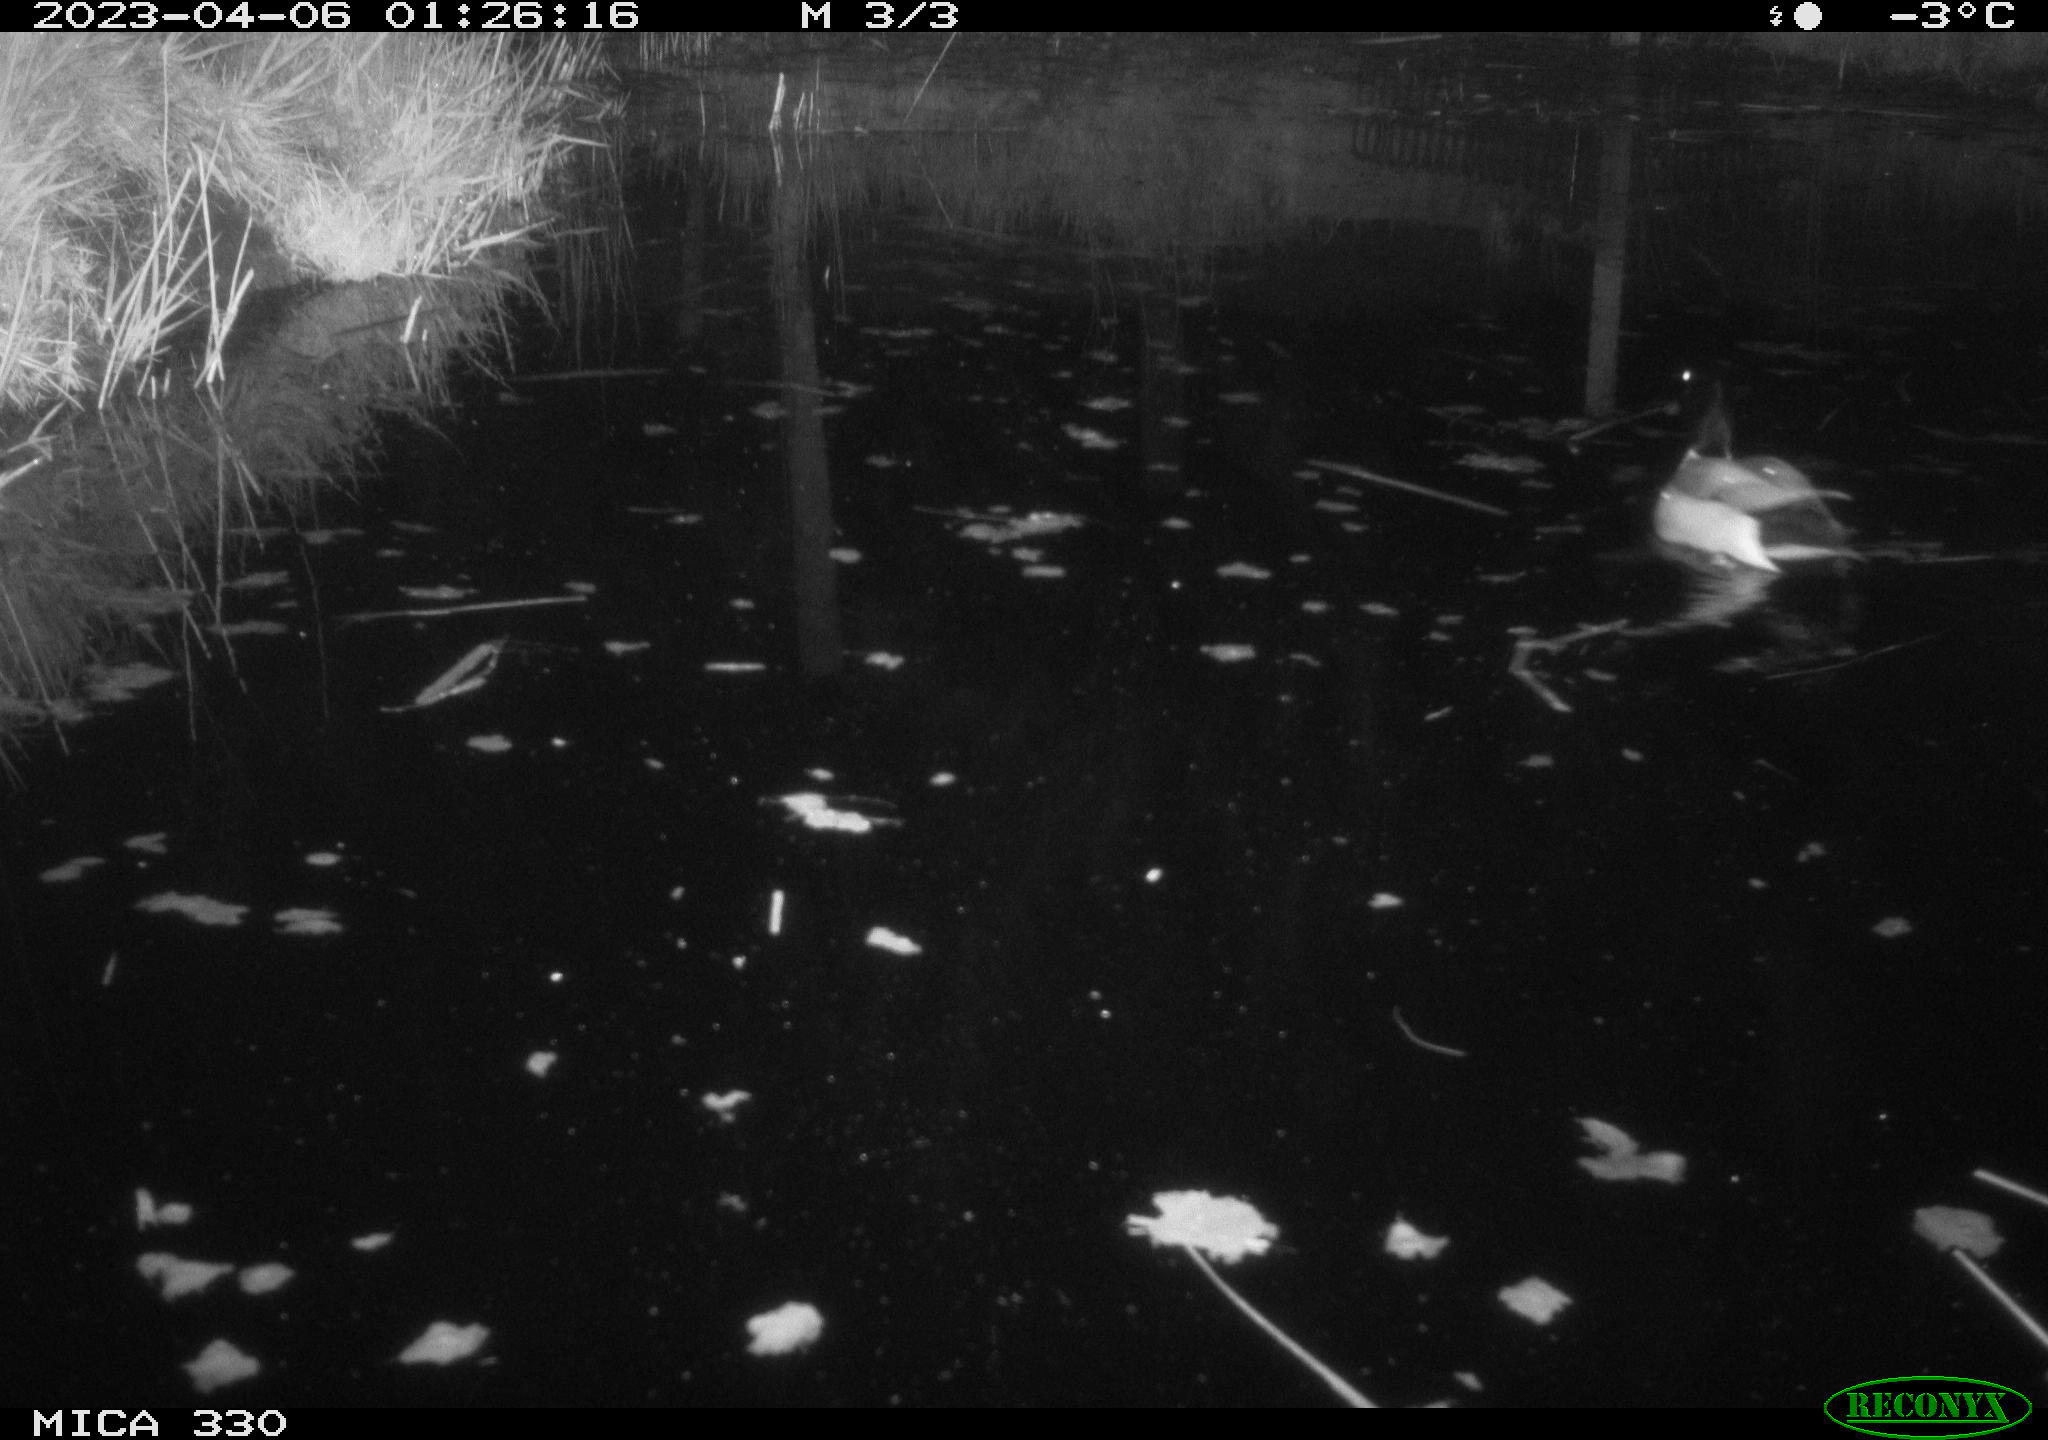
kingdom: Animalia
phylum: Chordata
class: Aves
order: Anseriformes
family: Anatidae
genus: Anas
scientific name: Anas
